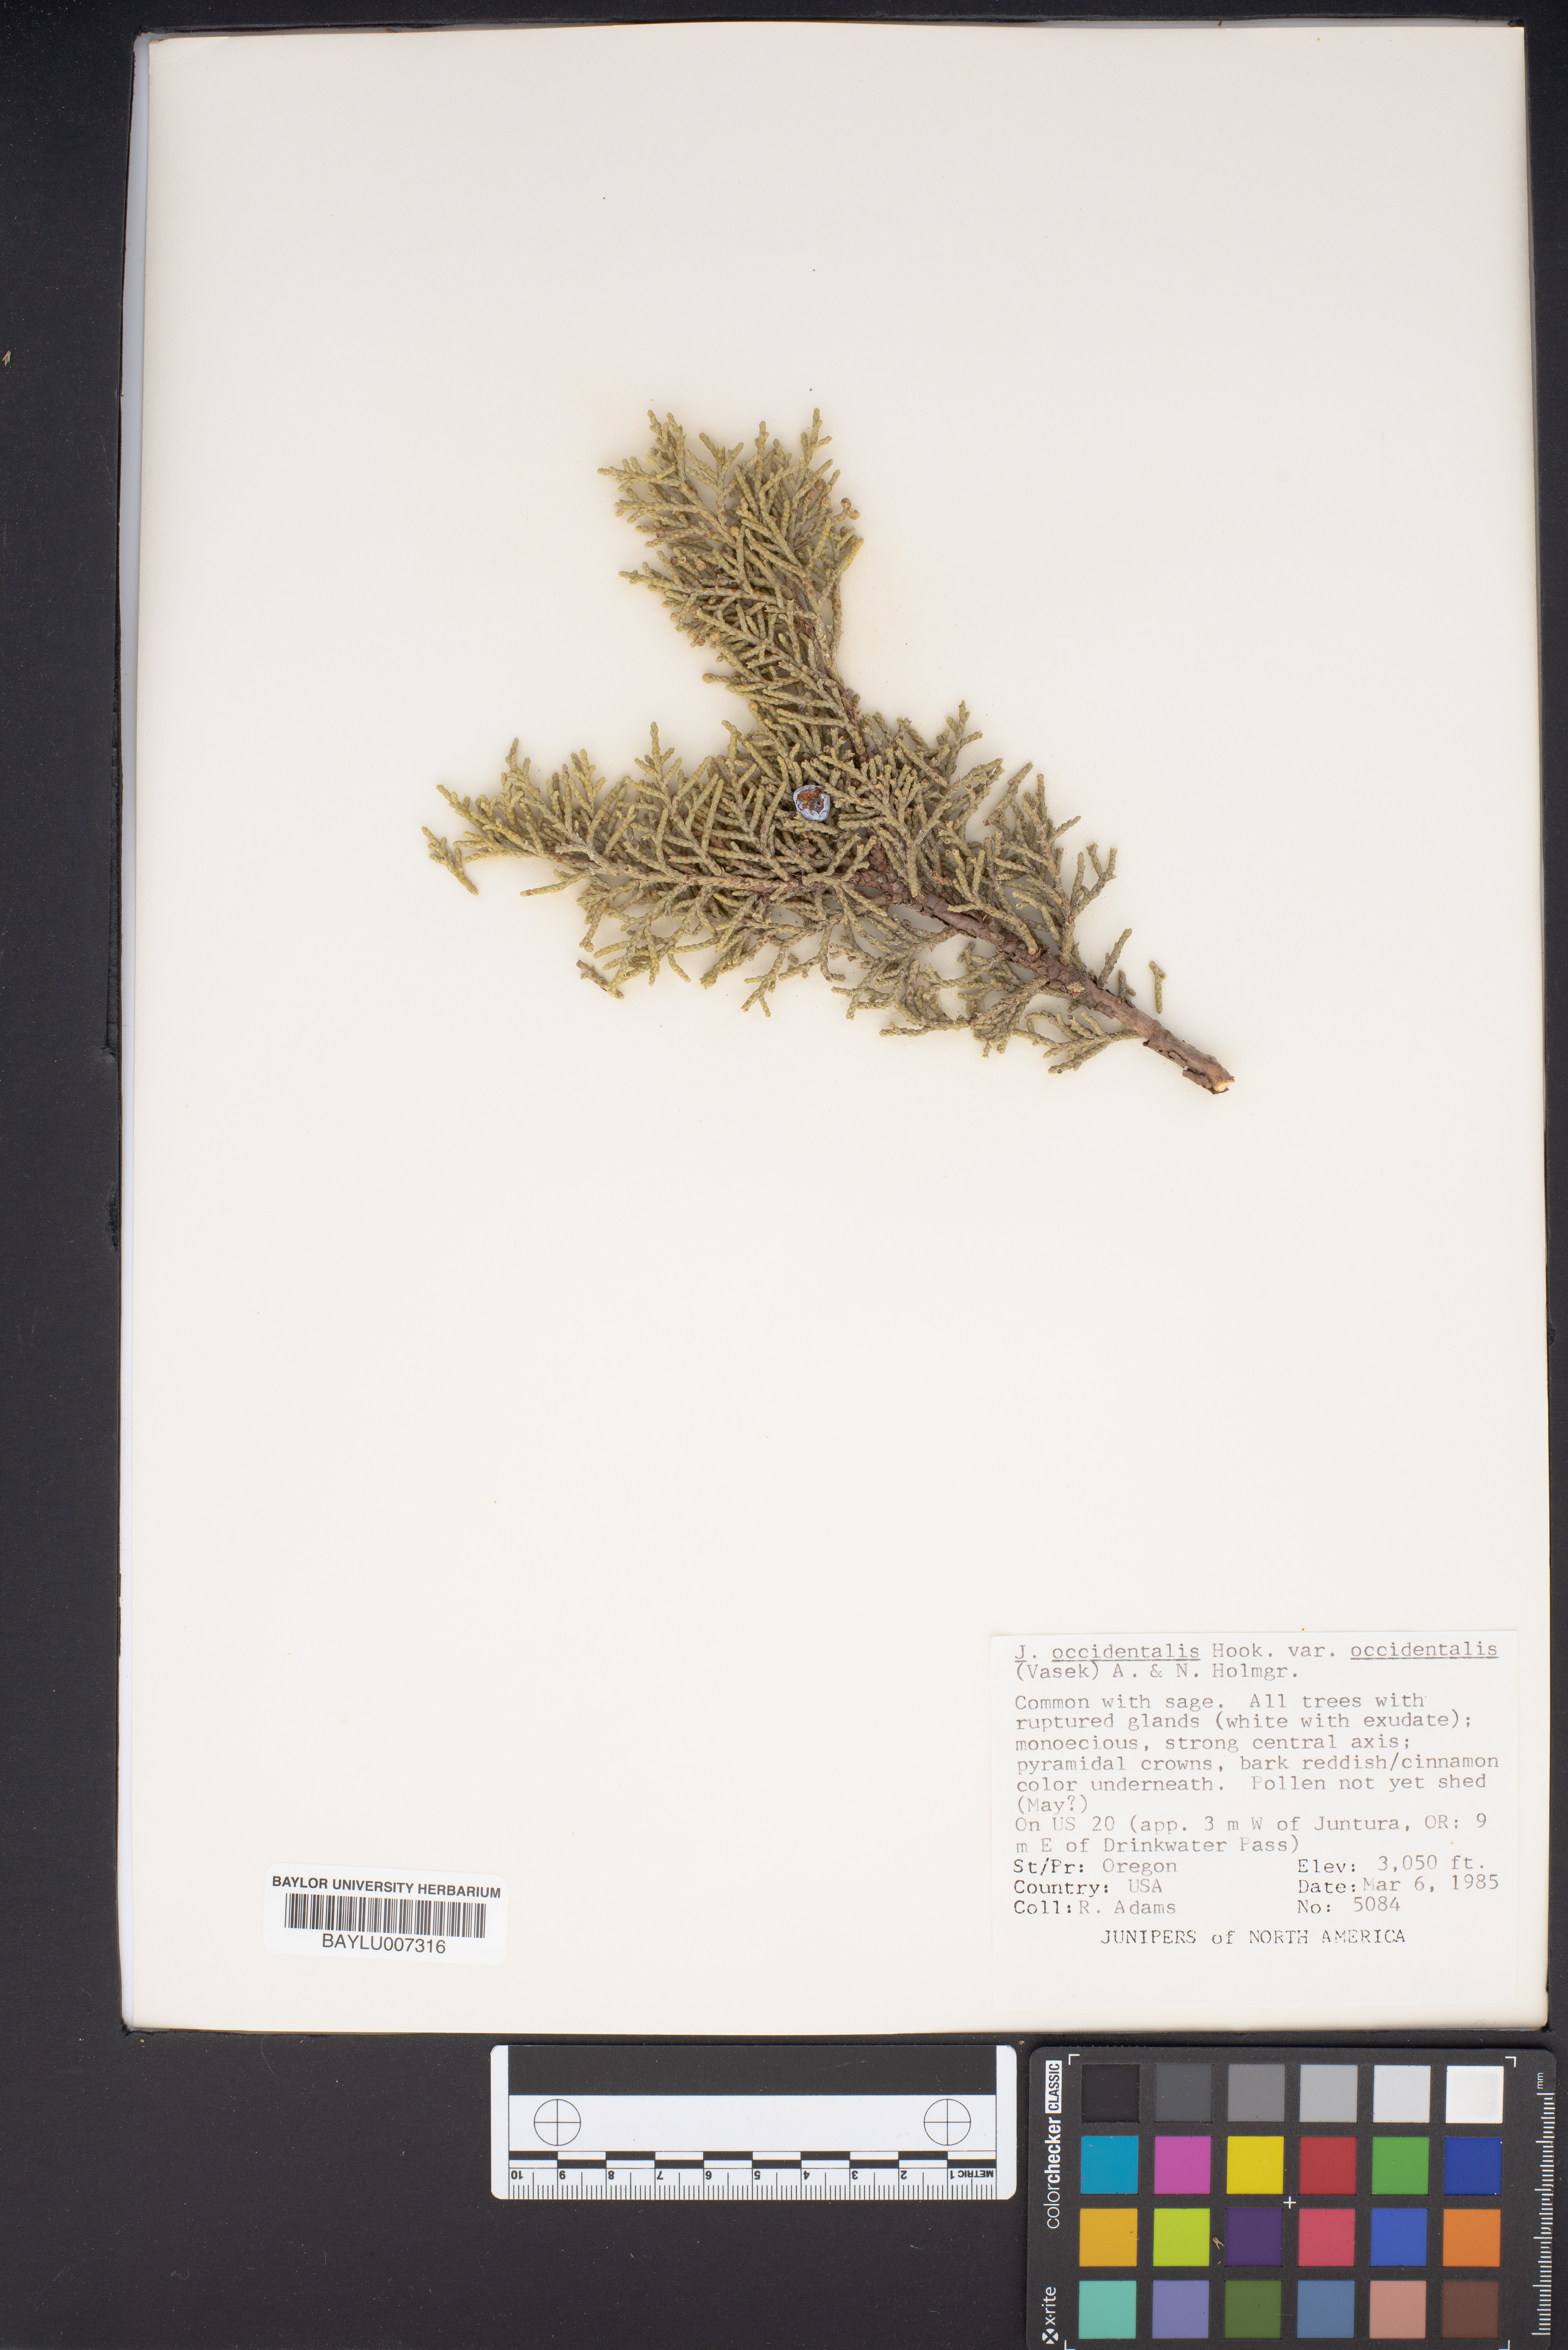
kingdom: Plantae
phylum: Tracheophyta
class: Pinopsida
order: Pinales
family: Cupressaceae
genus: Juniperus
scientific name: Juniperus occidentalis
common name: Western juniper
